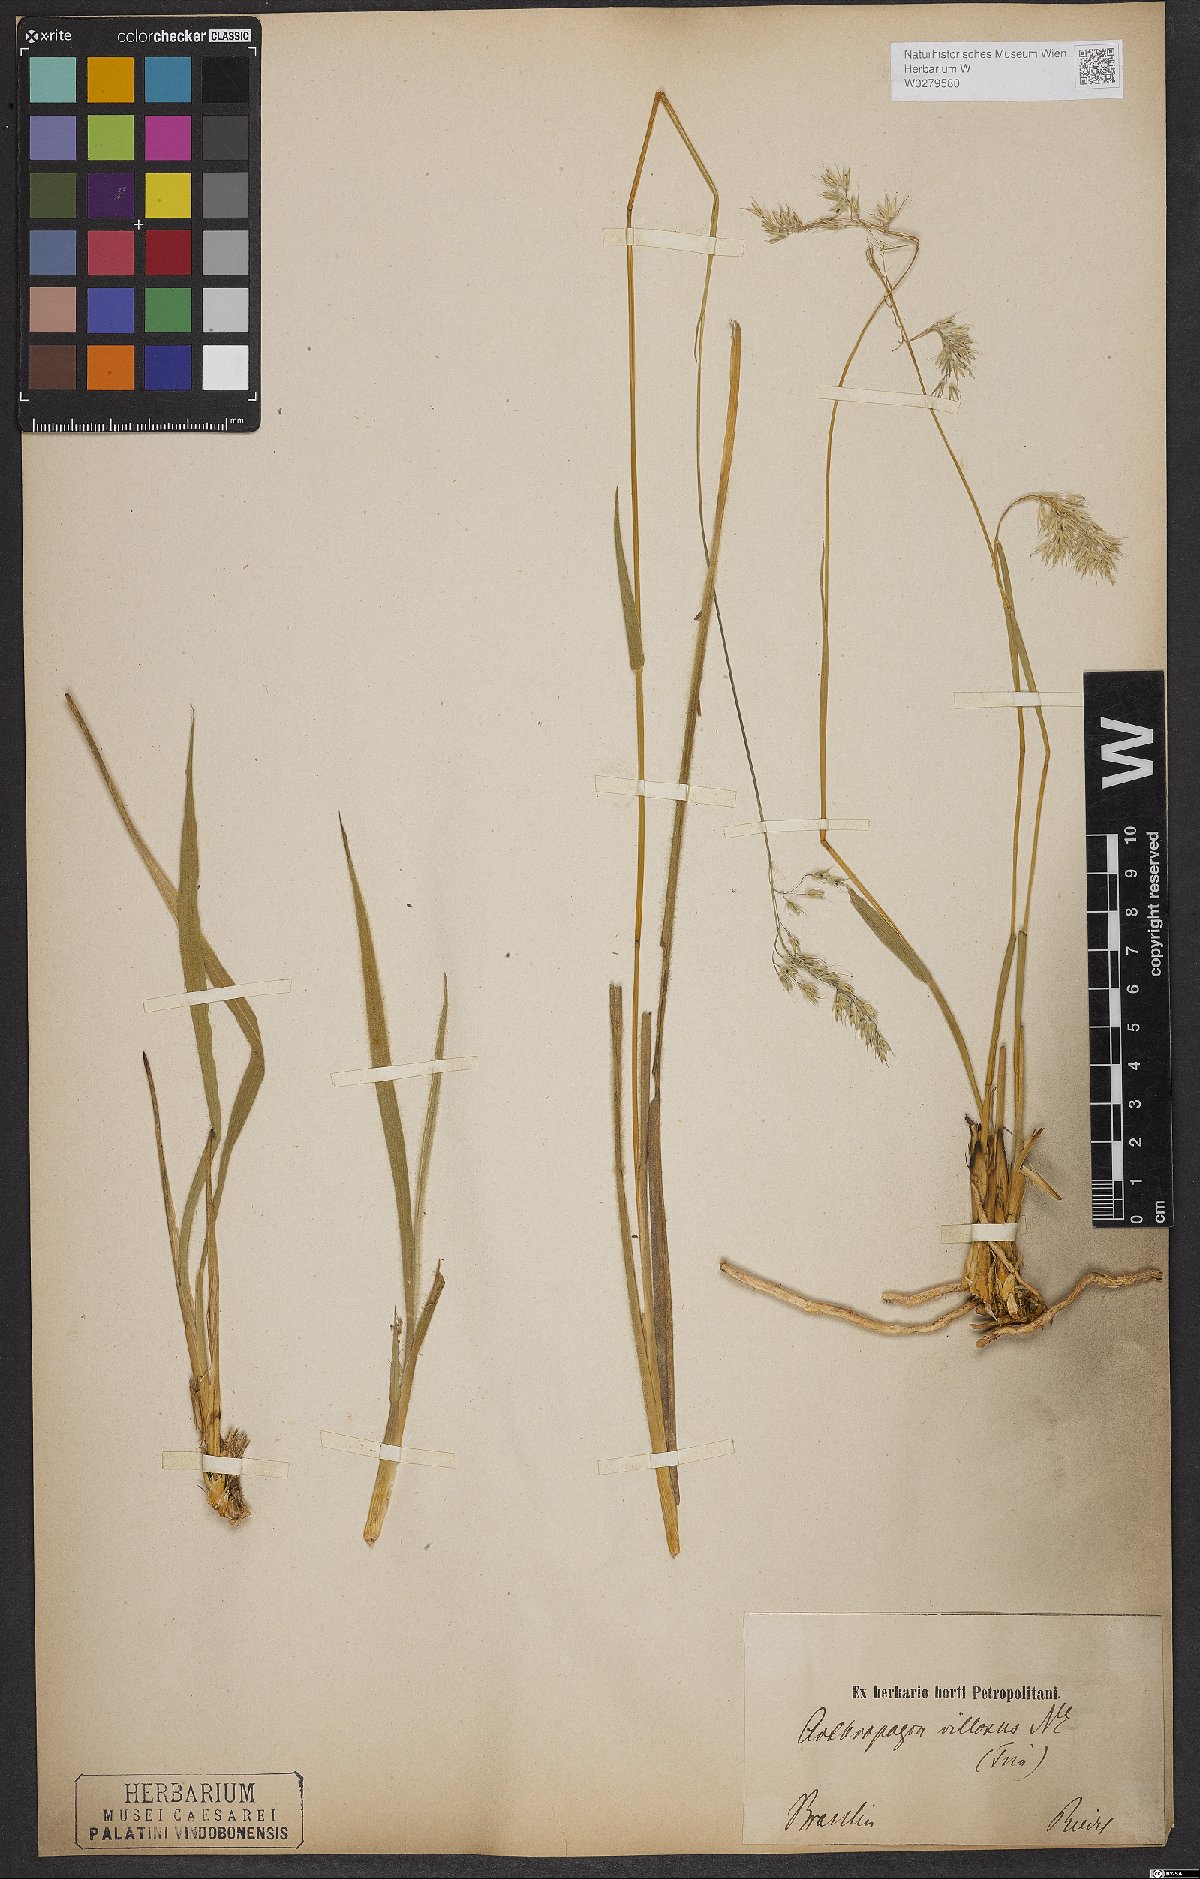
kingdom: Plantae
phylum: Tracheophyta
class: Liliopsida
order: Poales
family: Poaceae
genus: Arthropogon
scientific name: Arthropogon villosus
